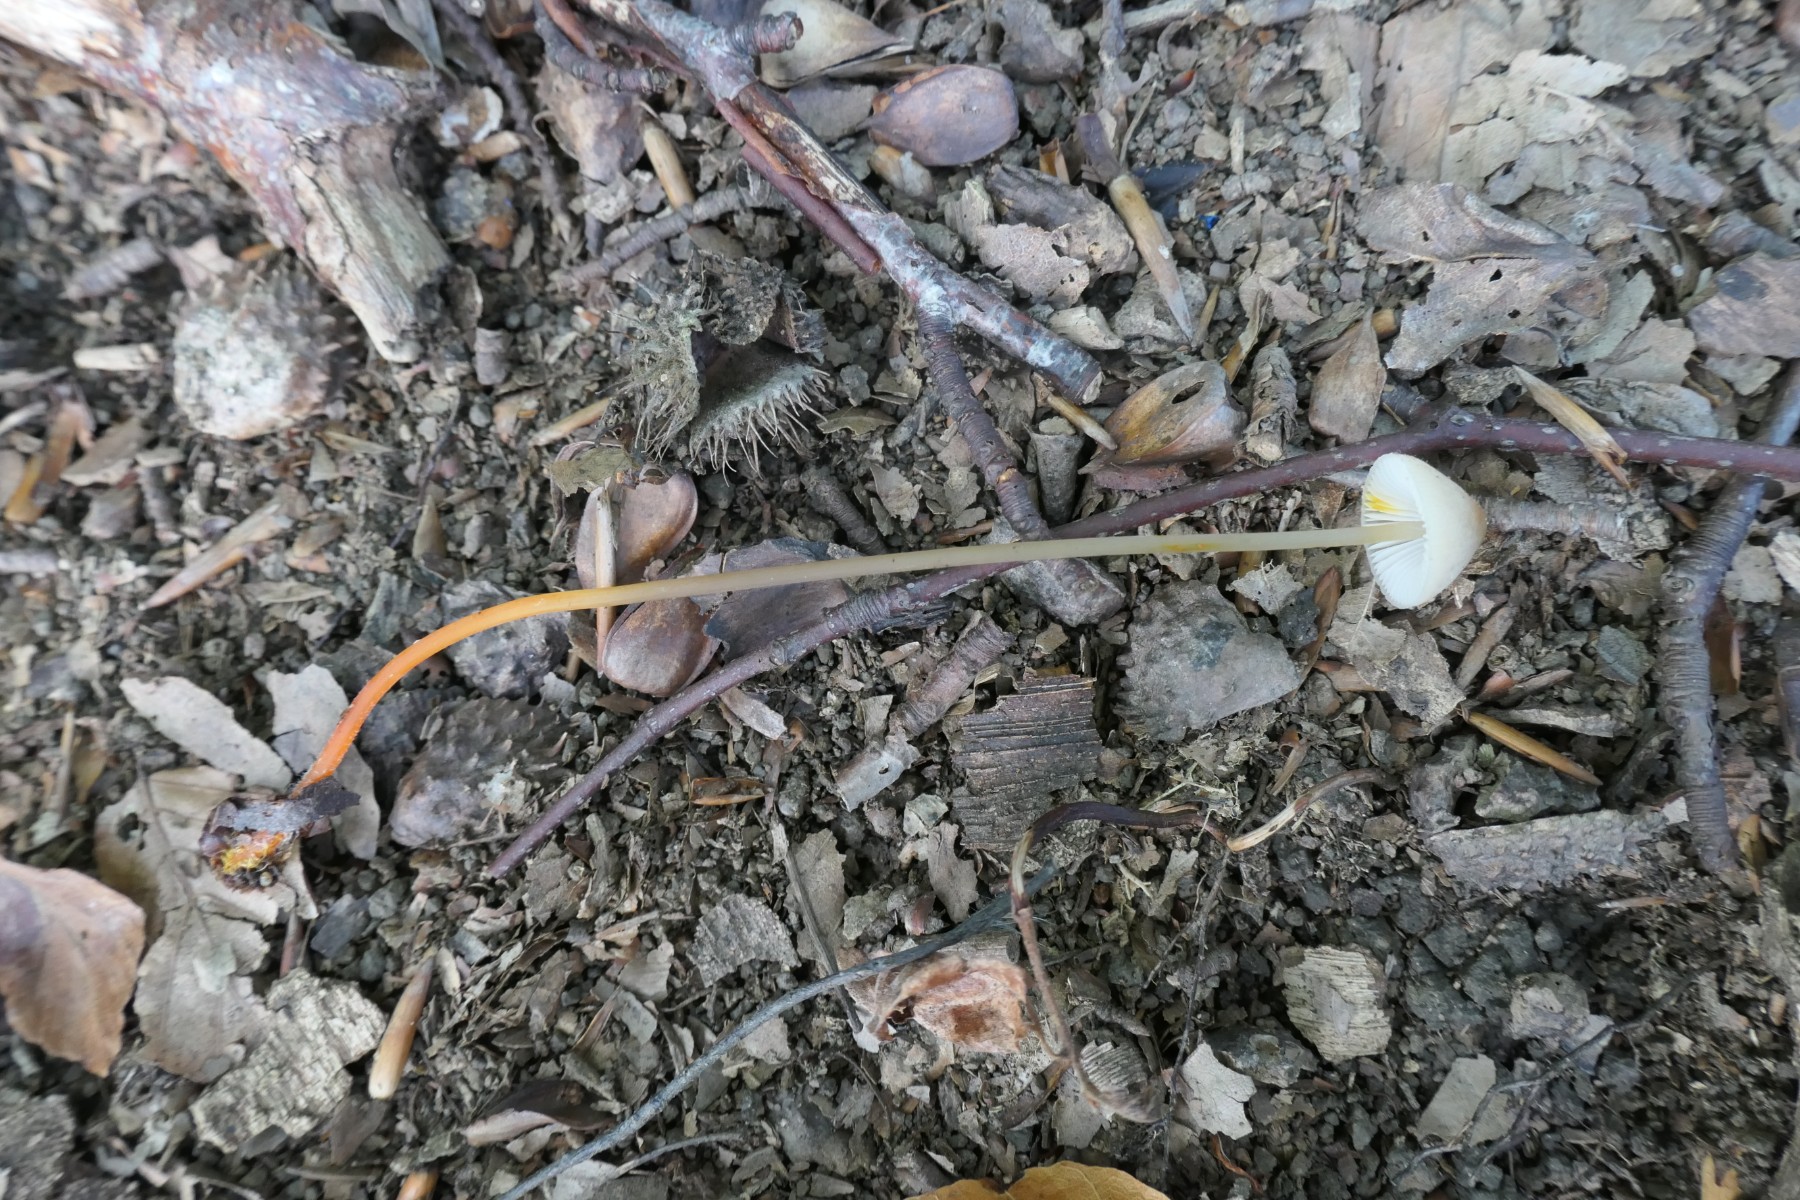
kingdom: Fungi
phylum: Basidiomycota
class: Agaricomycetes
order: Agaricales
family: Mycenaceae
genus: Mycena
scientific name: Mycena crocata
